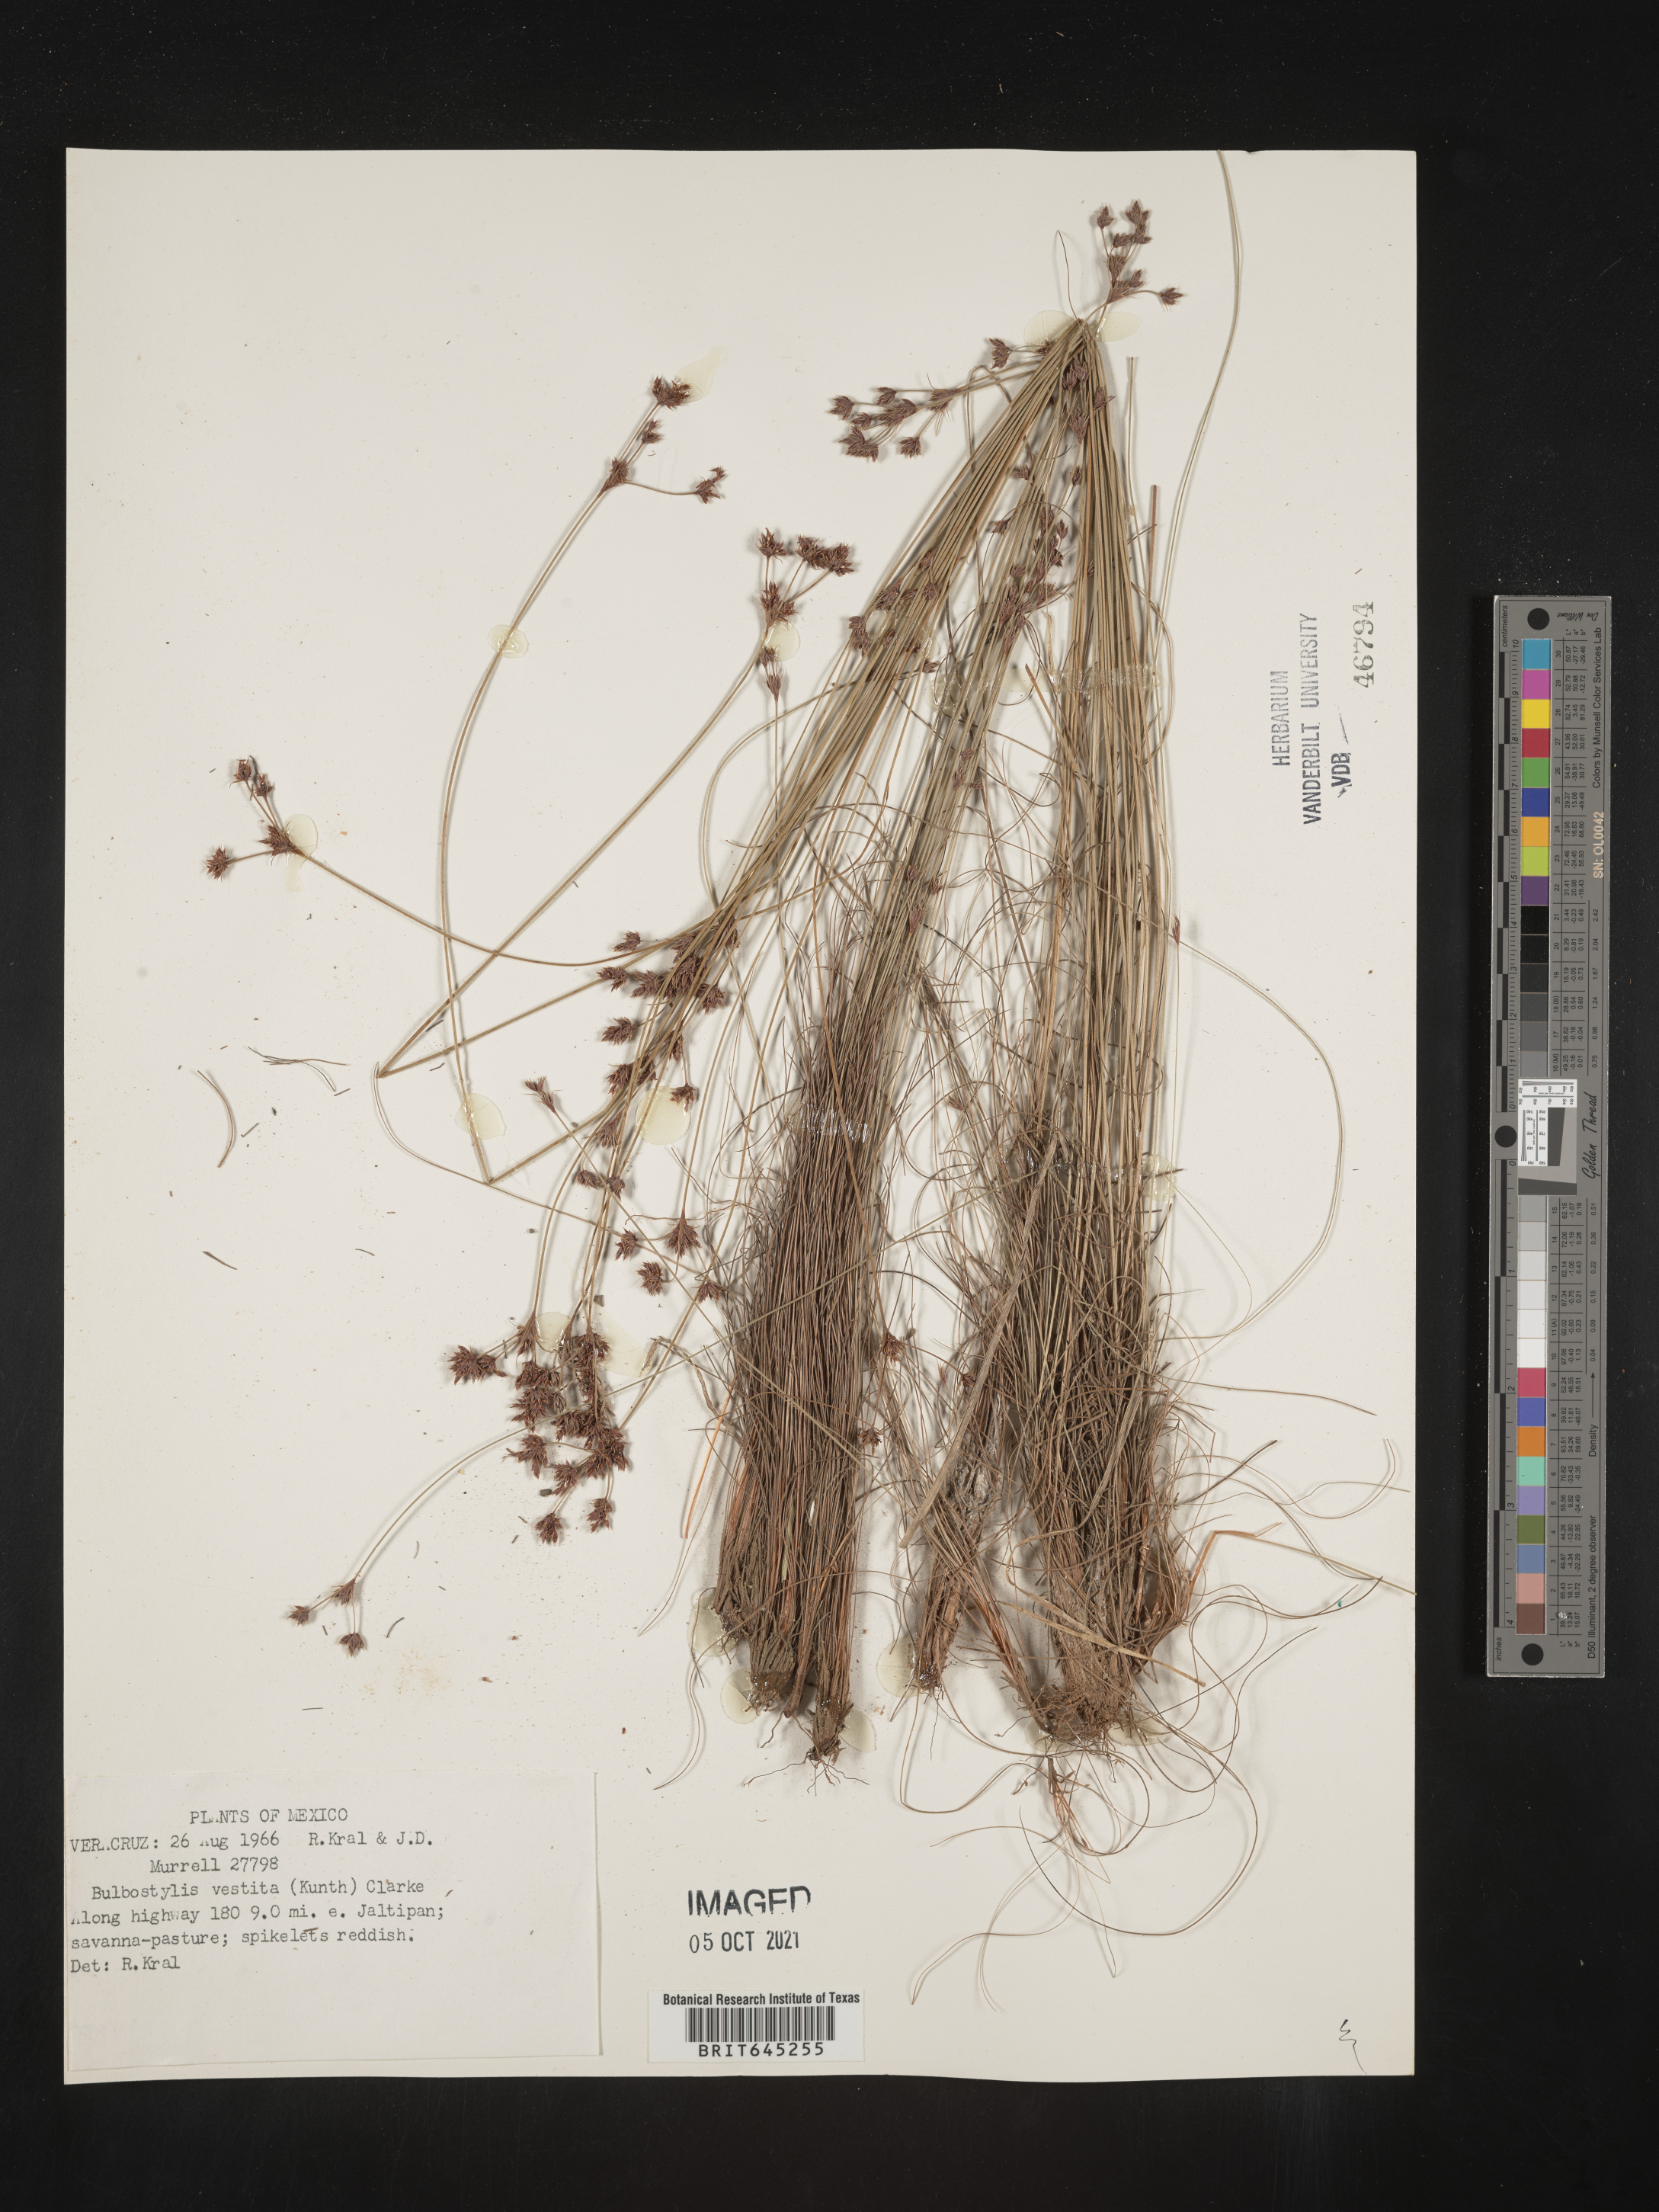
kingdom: Plantae
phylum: Tracheophyta
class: Liliopsida
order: Poales
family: Cyperaceae
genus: Bulbostylis
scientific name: Bulbostylis vestita
